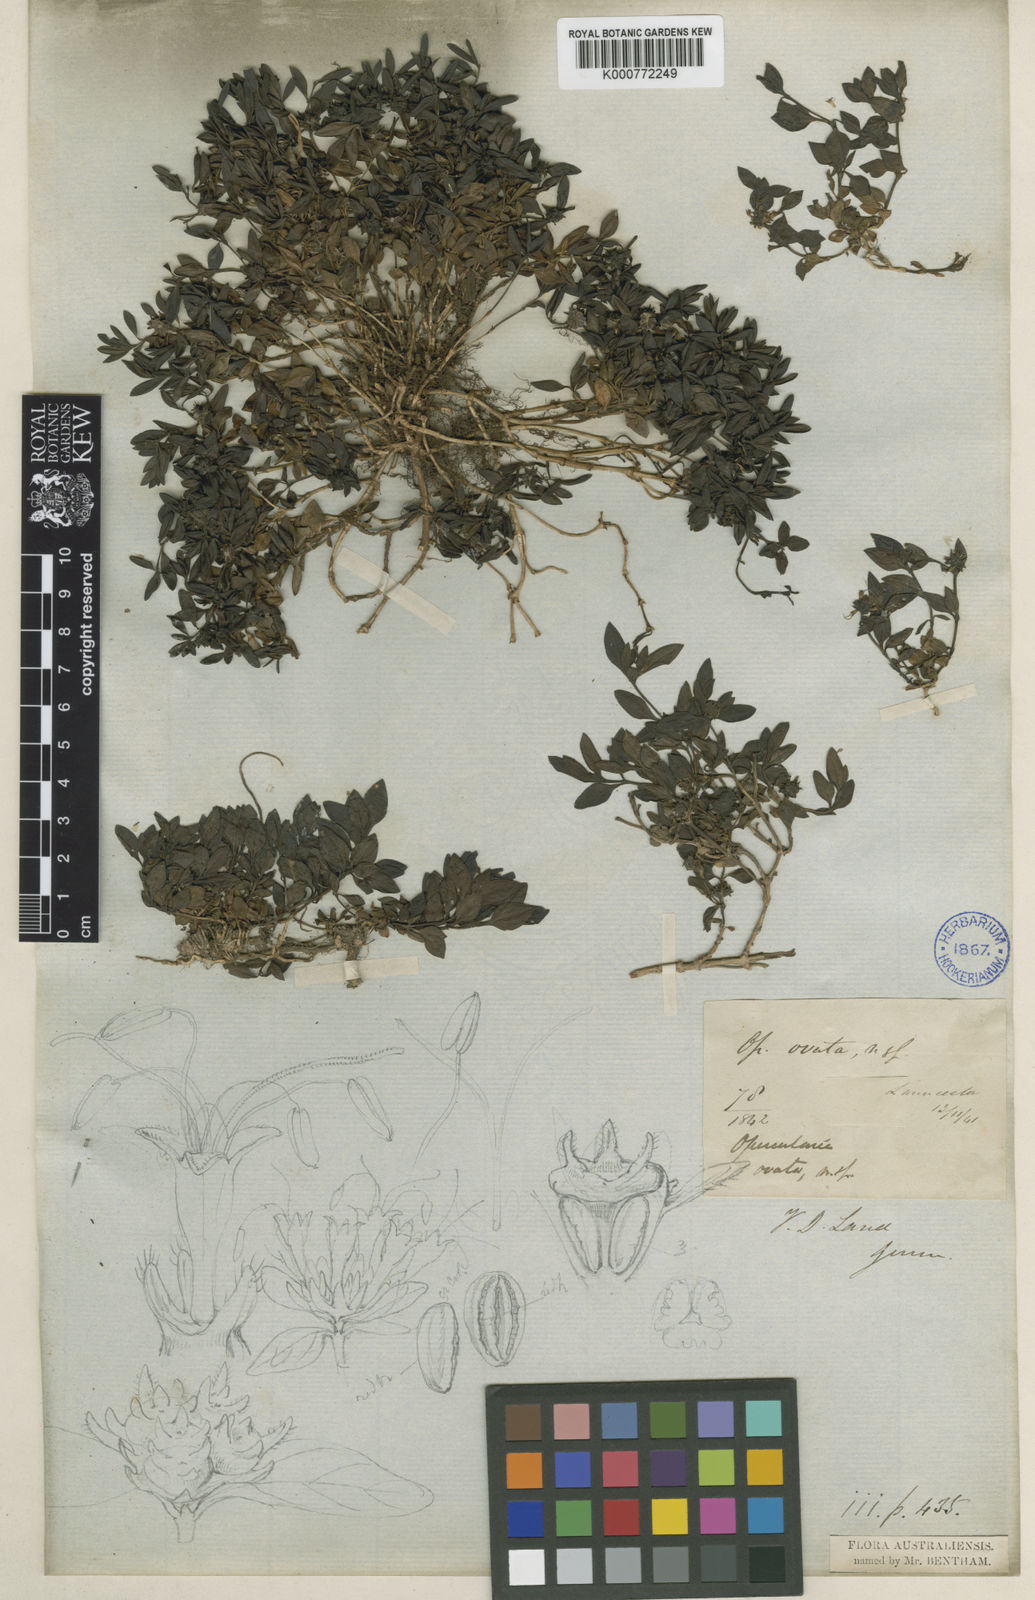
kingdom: Plantae
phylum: Tracheophyta
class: Magnoliopsida
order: Gentianales
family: Rubiaceae
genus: Opercularia
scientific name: Opercularia ovata
